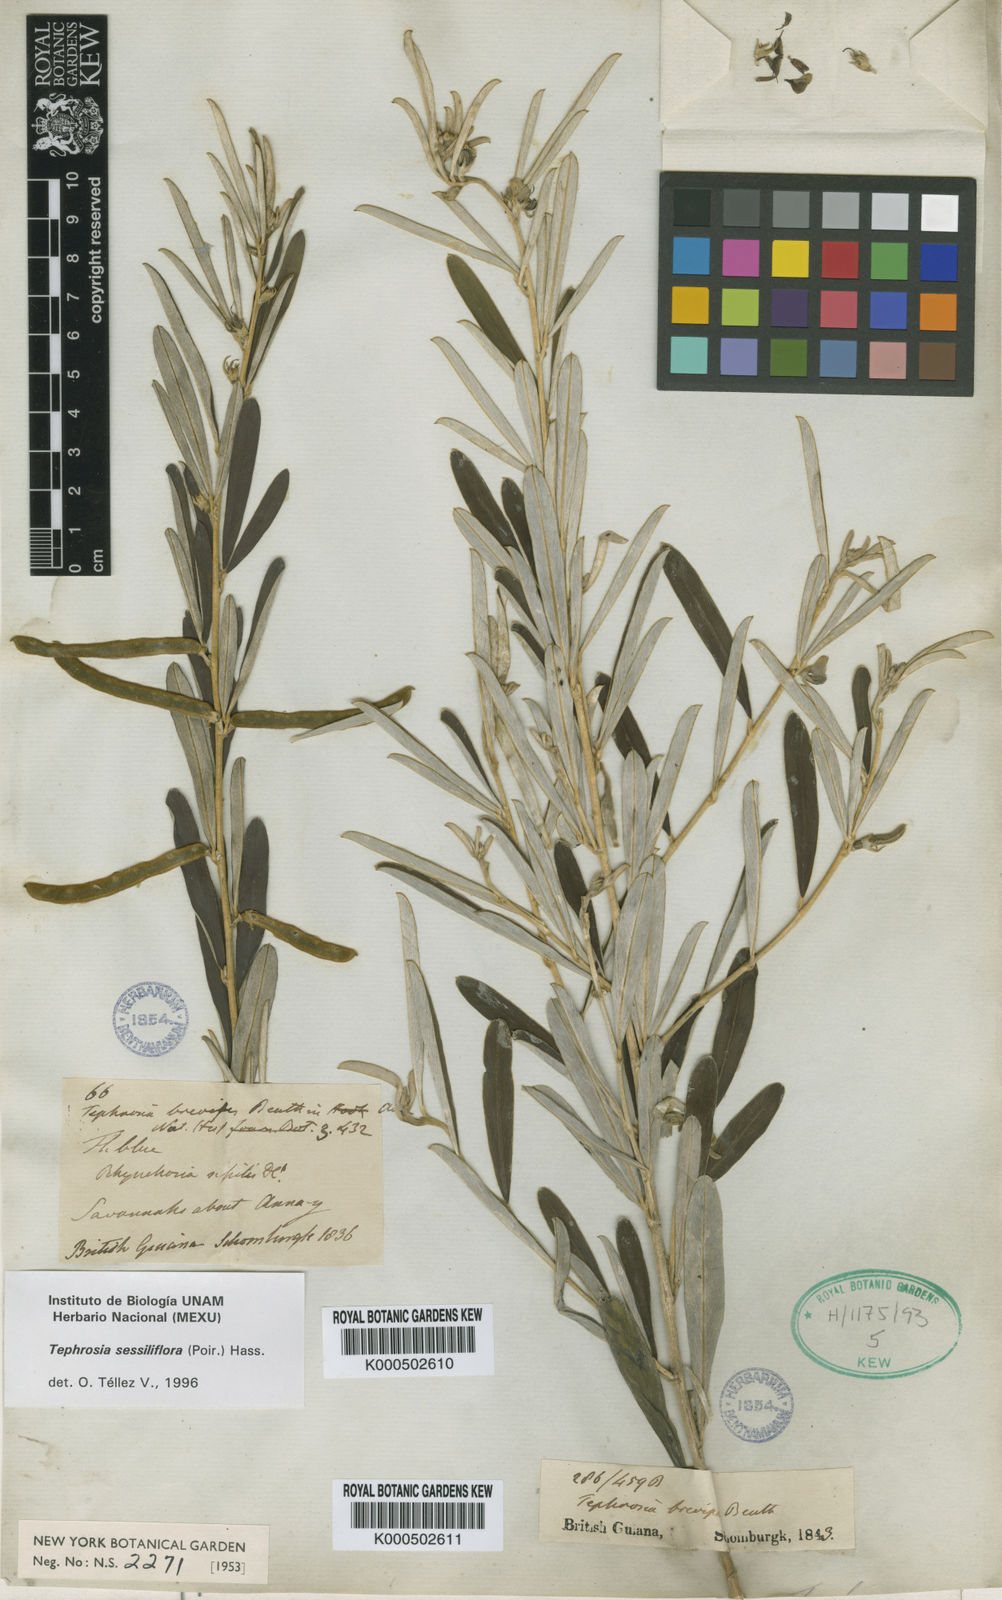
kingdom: Plantae
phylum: Tracheophyta
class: Magnoliopsida
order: Fabales
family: Fabaceae
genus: Tephrosia
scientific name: Tephrosia sessiliflora
